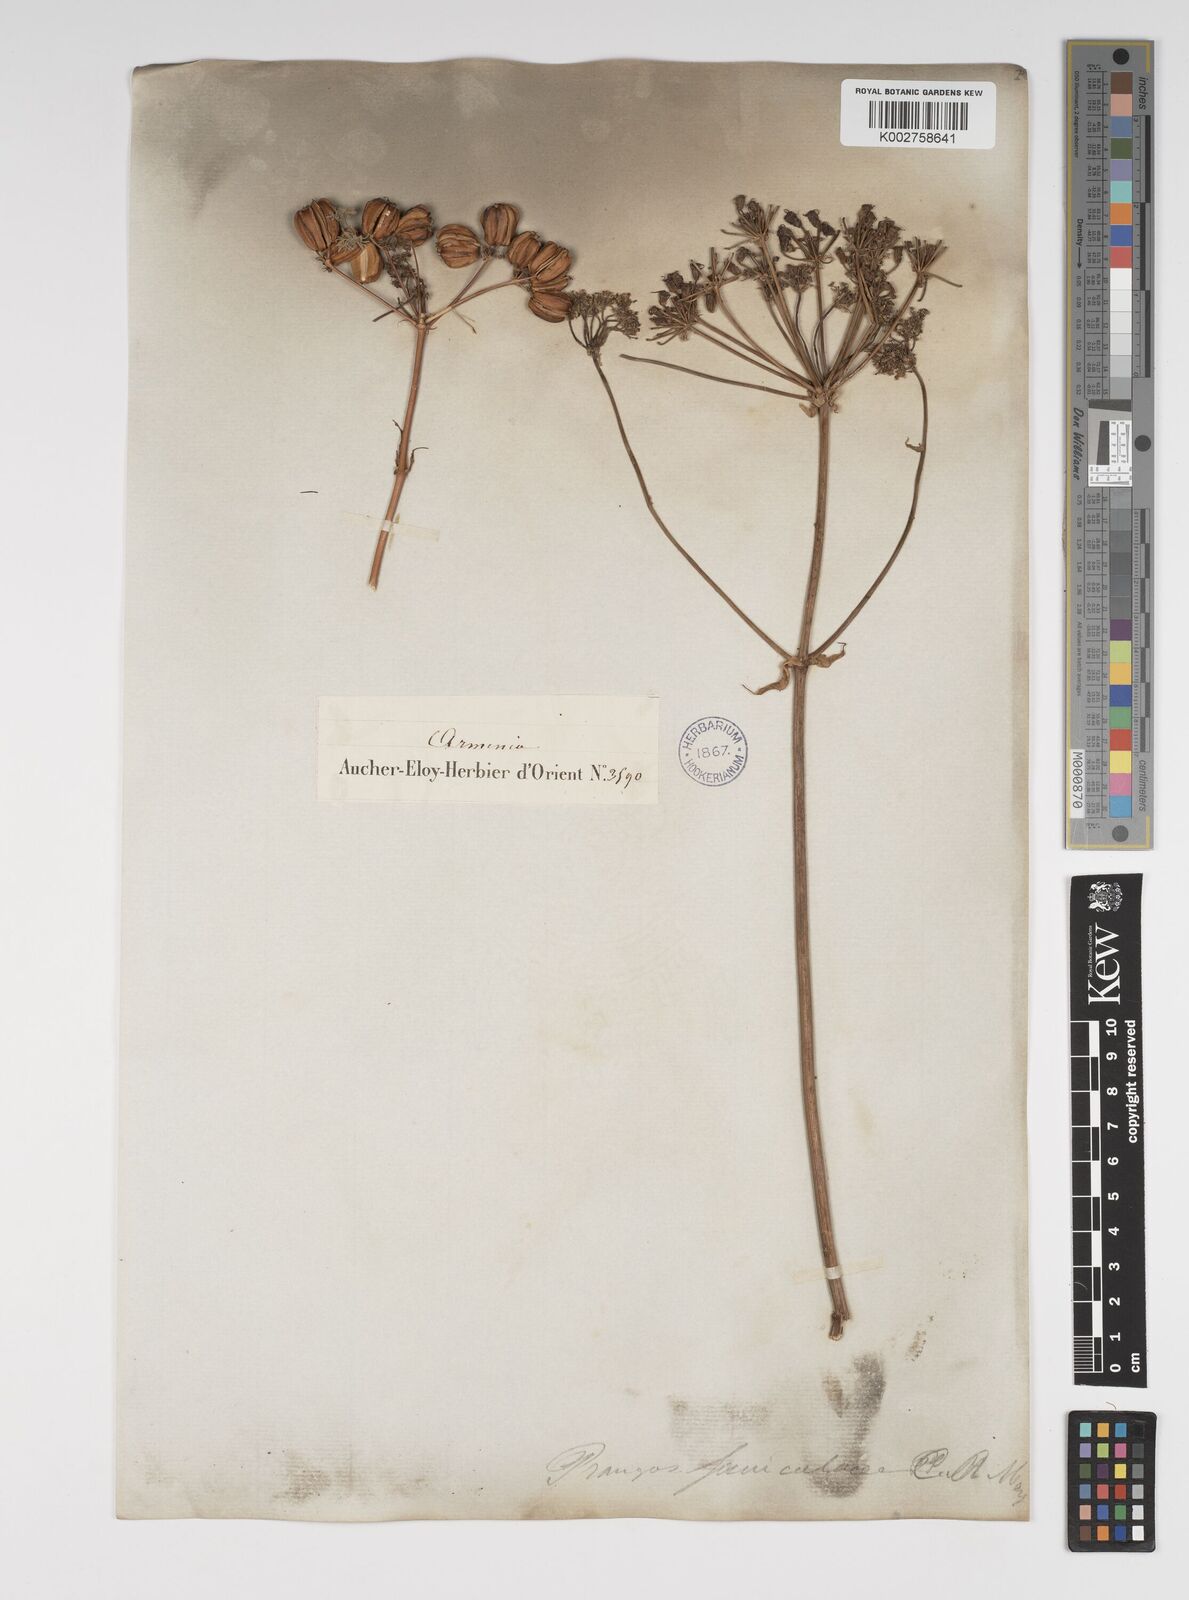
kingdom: Plantae
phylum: Tracheophyta
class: Magnoliopsida
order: Apiales
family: Apiaceae
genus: Prangos
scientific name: Prangos ferulacea
